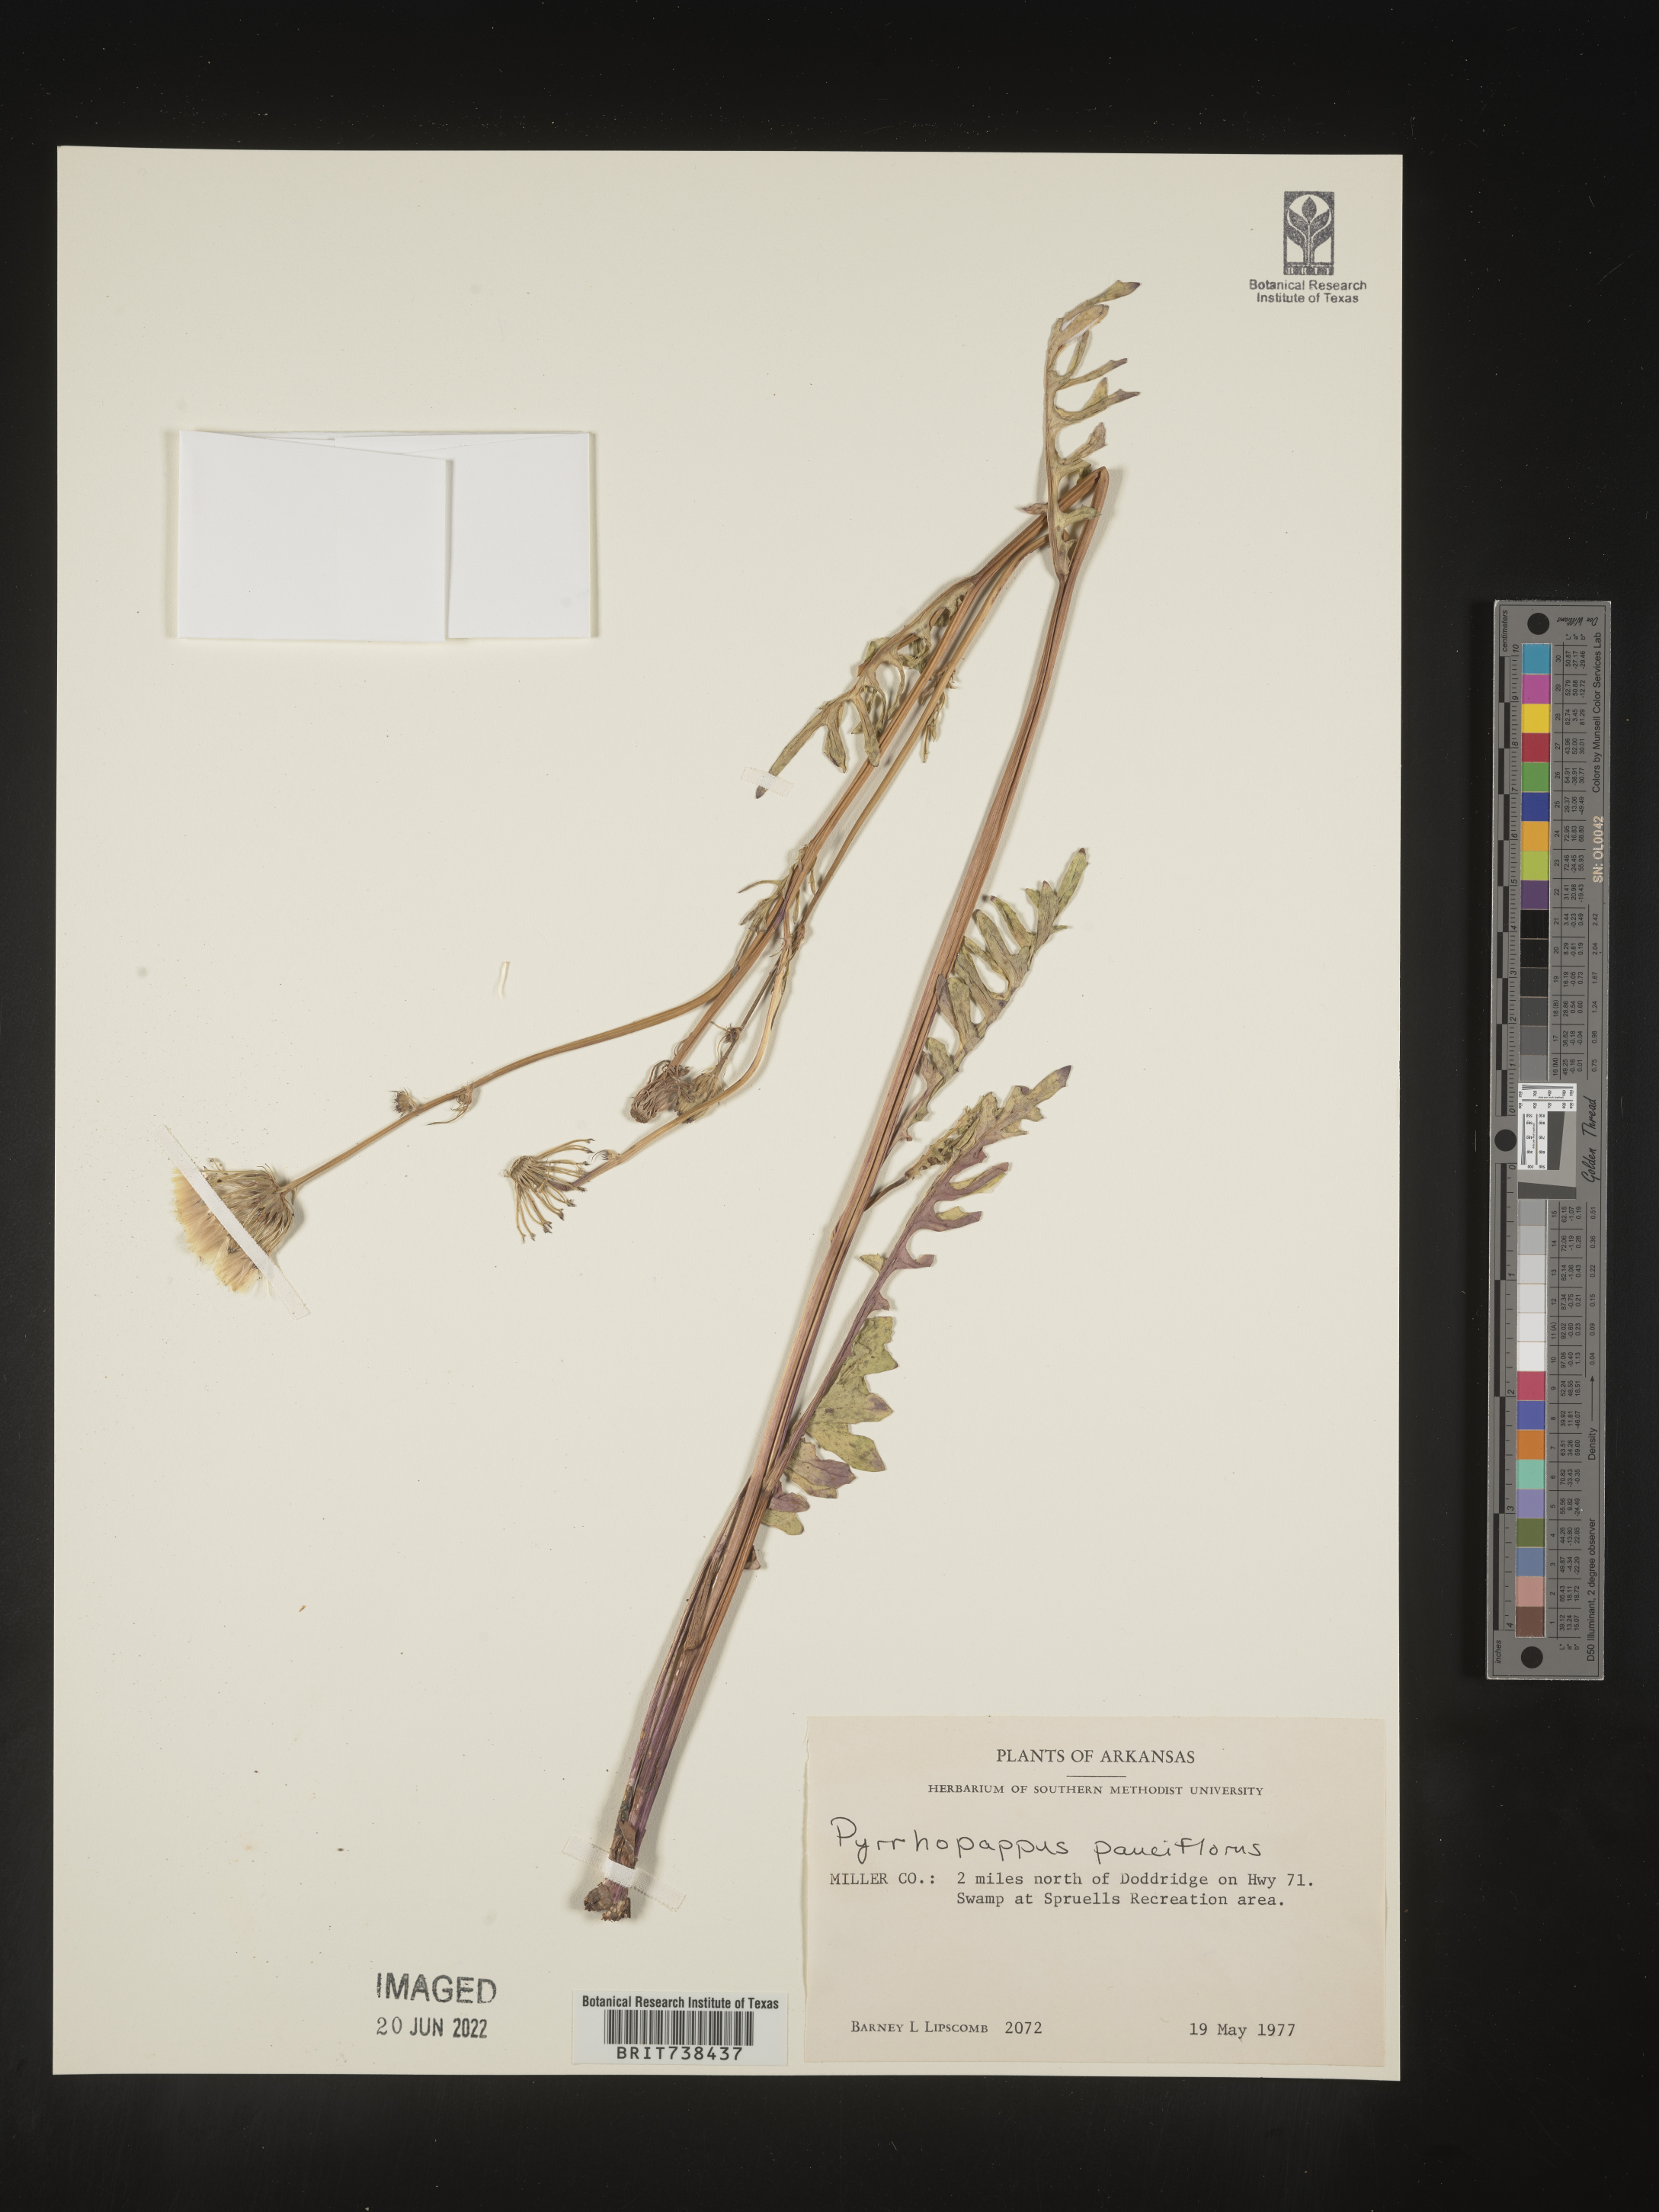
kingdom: Plantae
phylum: Tracheophyta
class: Magnoliopsida
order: Asterales
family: Asteraceae
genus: Pyrrhopappus
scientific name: Pyrrhopappus pauciflorus
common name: Texas false dandelion
